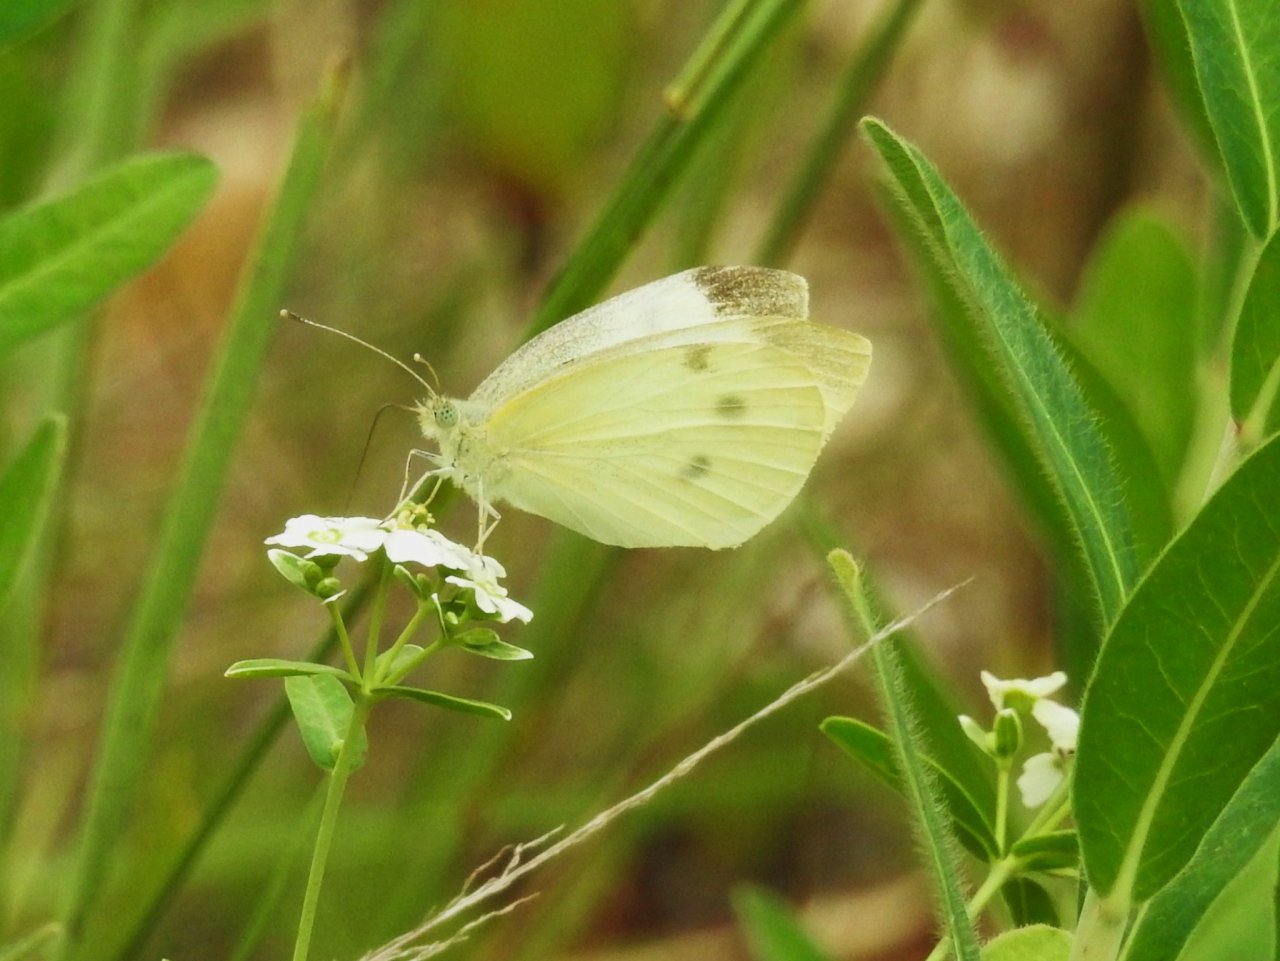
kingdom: Animalia
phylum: Arthropoda
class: Insecta
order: Lepidoptera
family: Pieridae
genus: Pieris
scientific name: Pieris rapae
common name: Cabbage White
